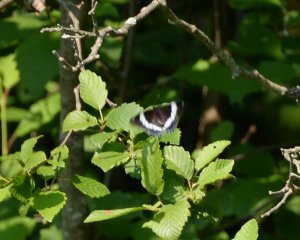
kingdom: Animalia
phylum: Arthropoda
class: Insecta
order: Lepidoptera
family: Nymphalidae
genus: Limenitis
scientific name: Limenitis arthemis
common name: Red-spotted Admiral
